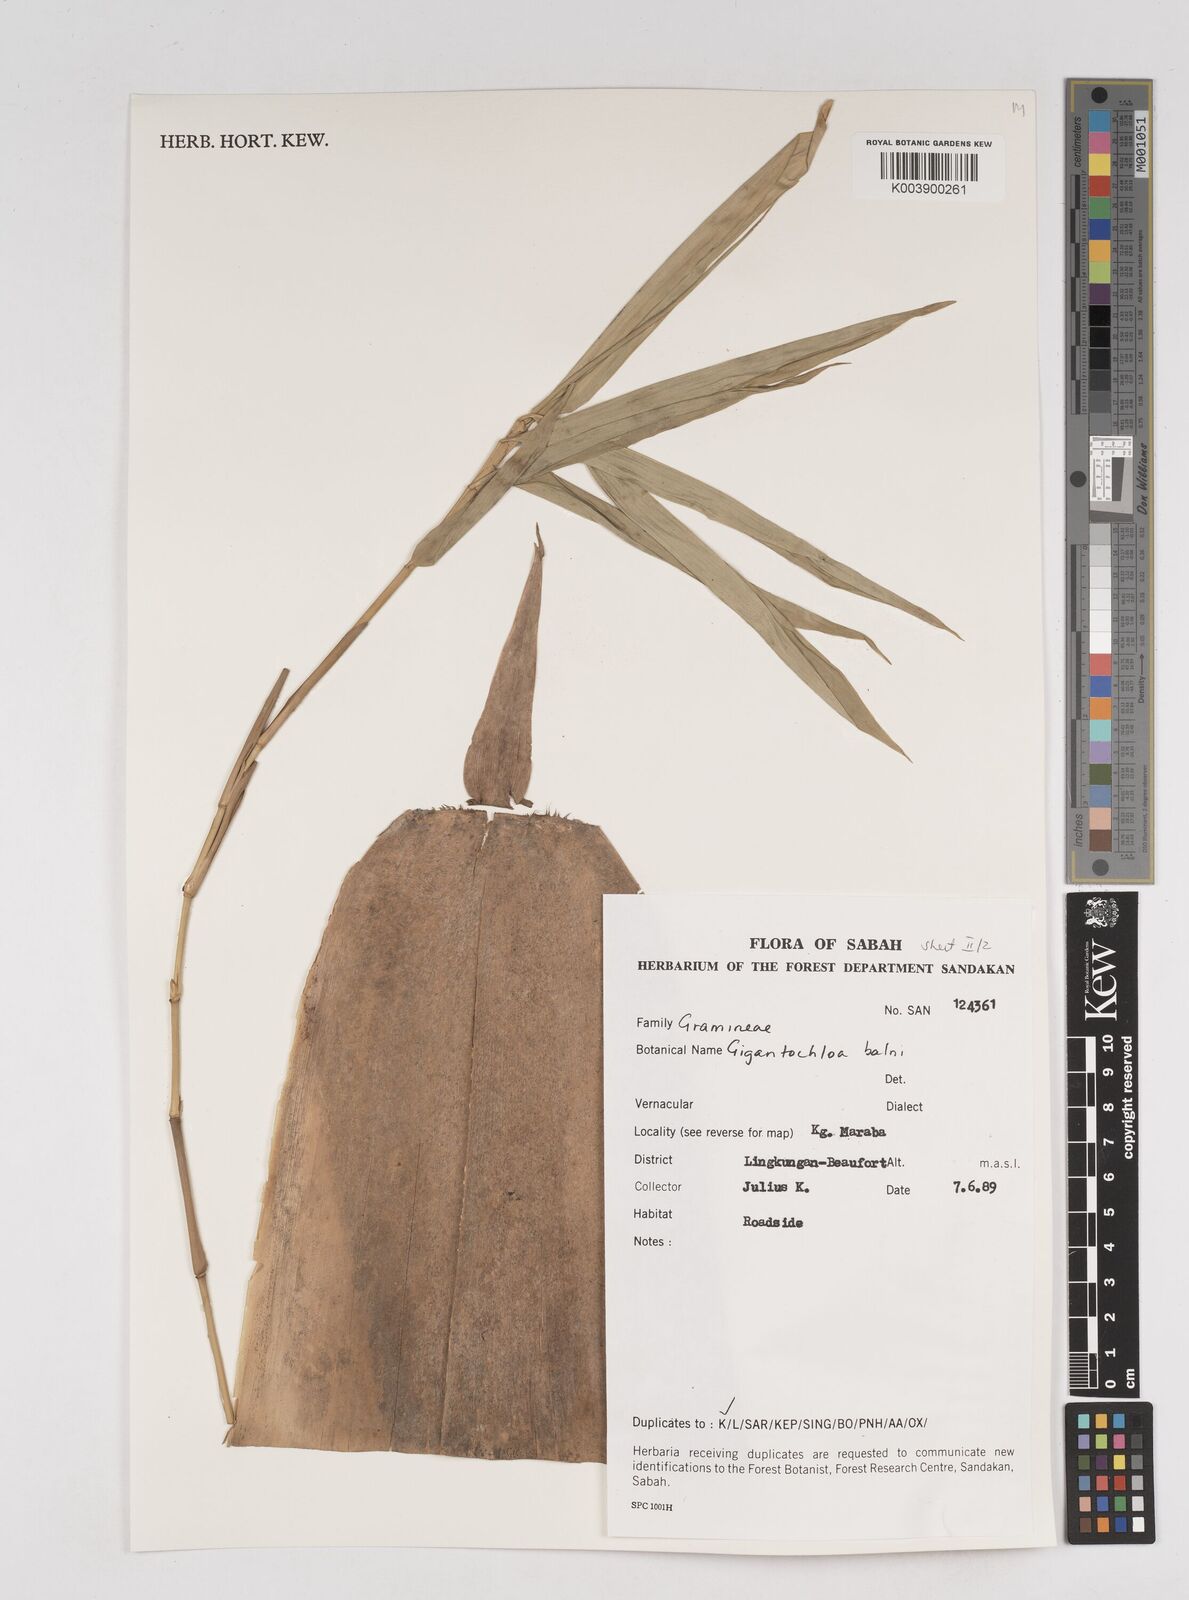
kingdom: Plantae
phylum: Tracheophyta
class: Liliopsida
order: Poales
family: Poaceae
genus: Gigantochloa
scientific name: Gigantochloa balui
